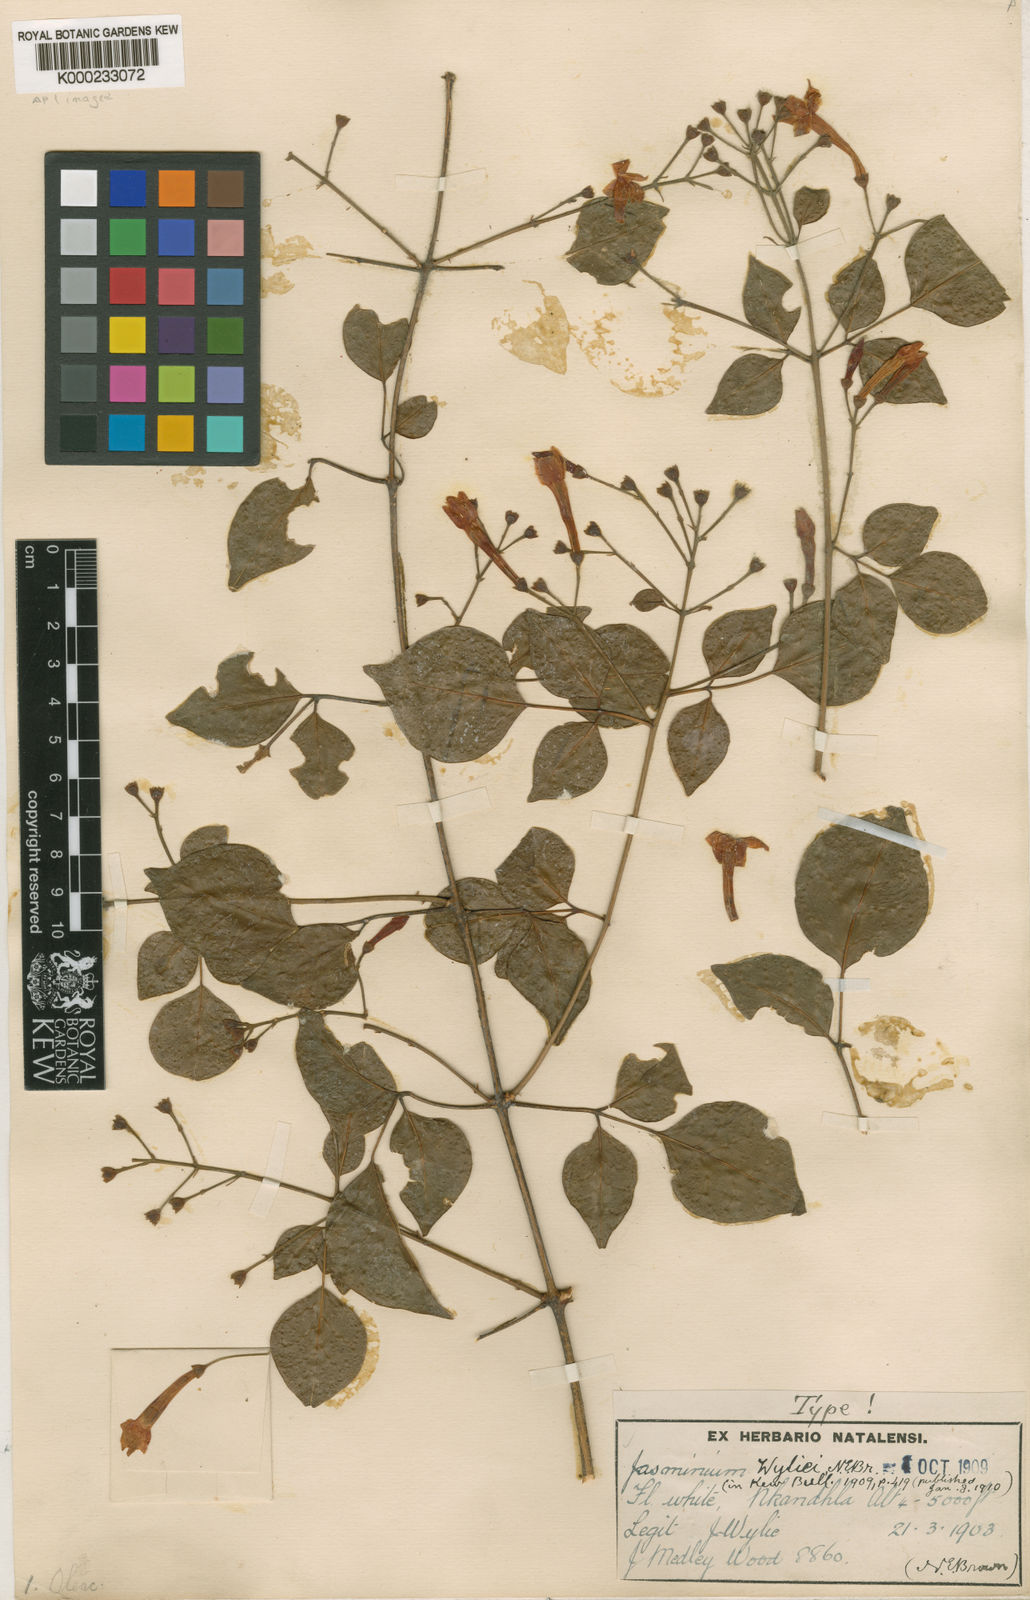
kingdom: Plantae
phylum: Tracheophyta
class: Magnoliopsida
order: Lamiales
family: Oleaceae
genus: Jasminum
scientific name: Jasminum abyssinicum
